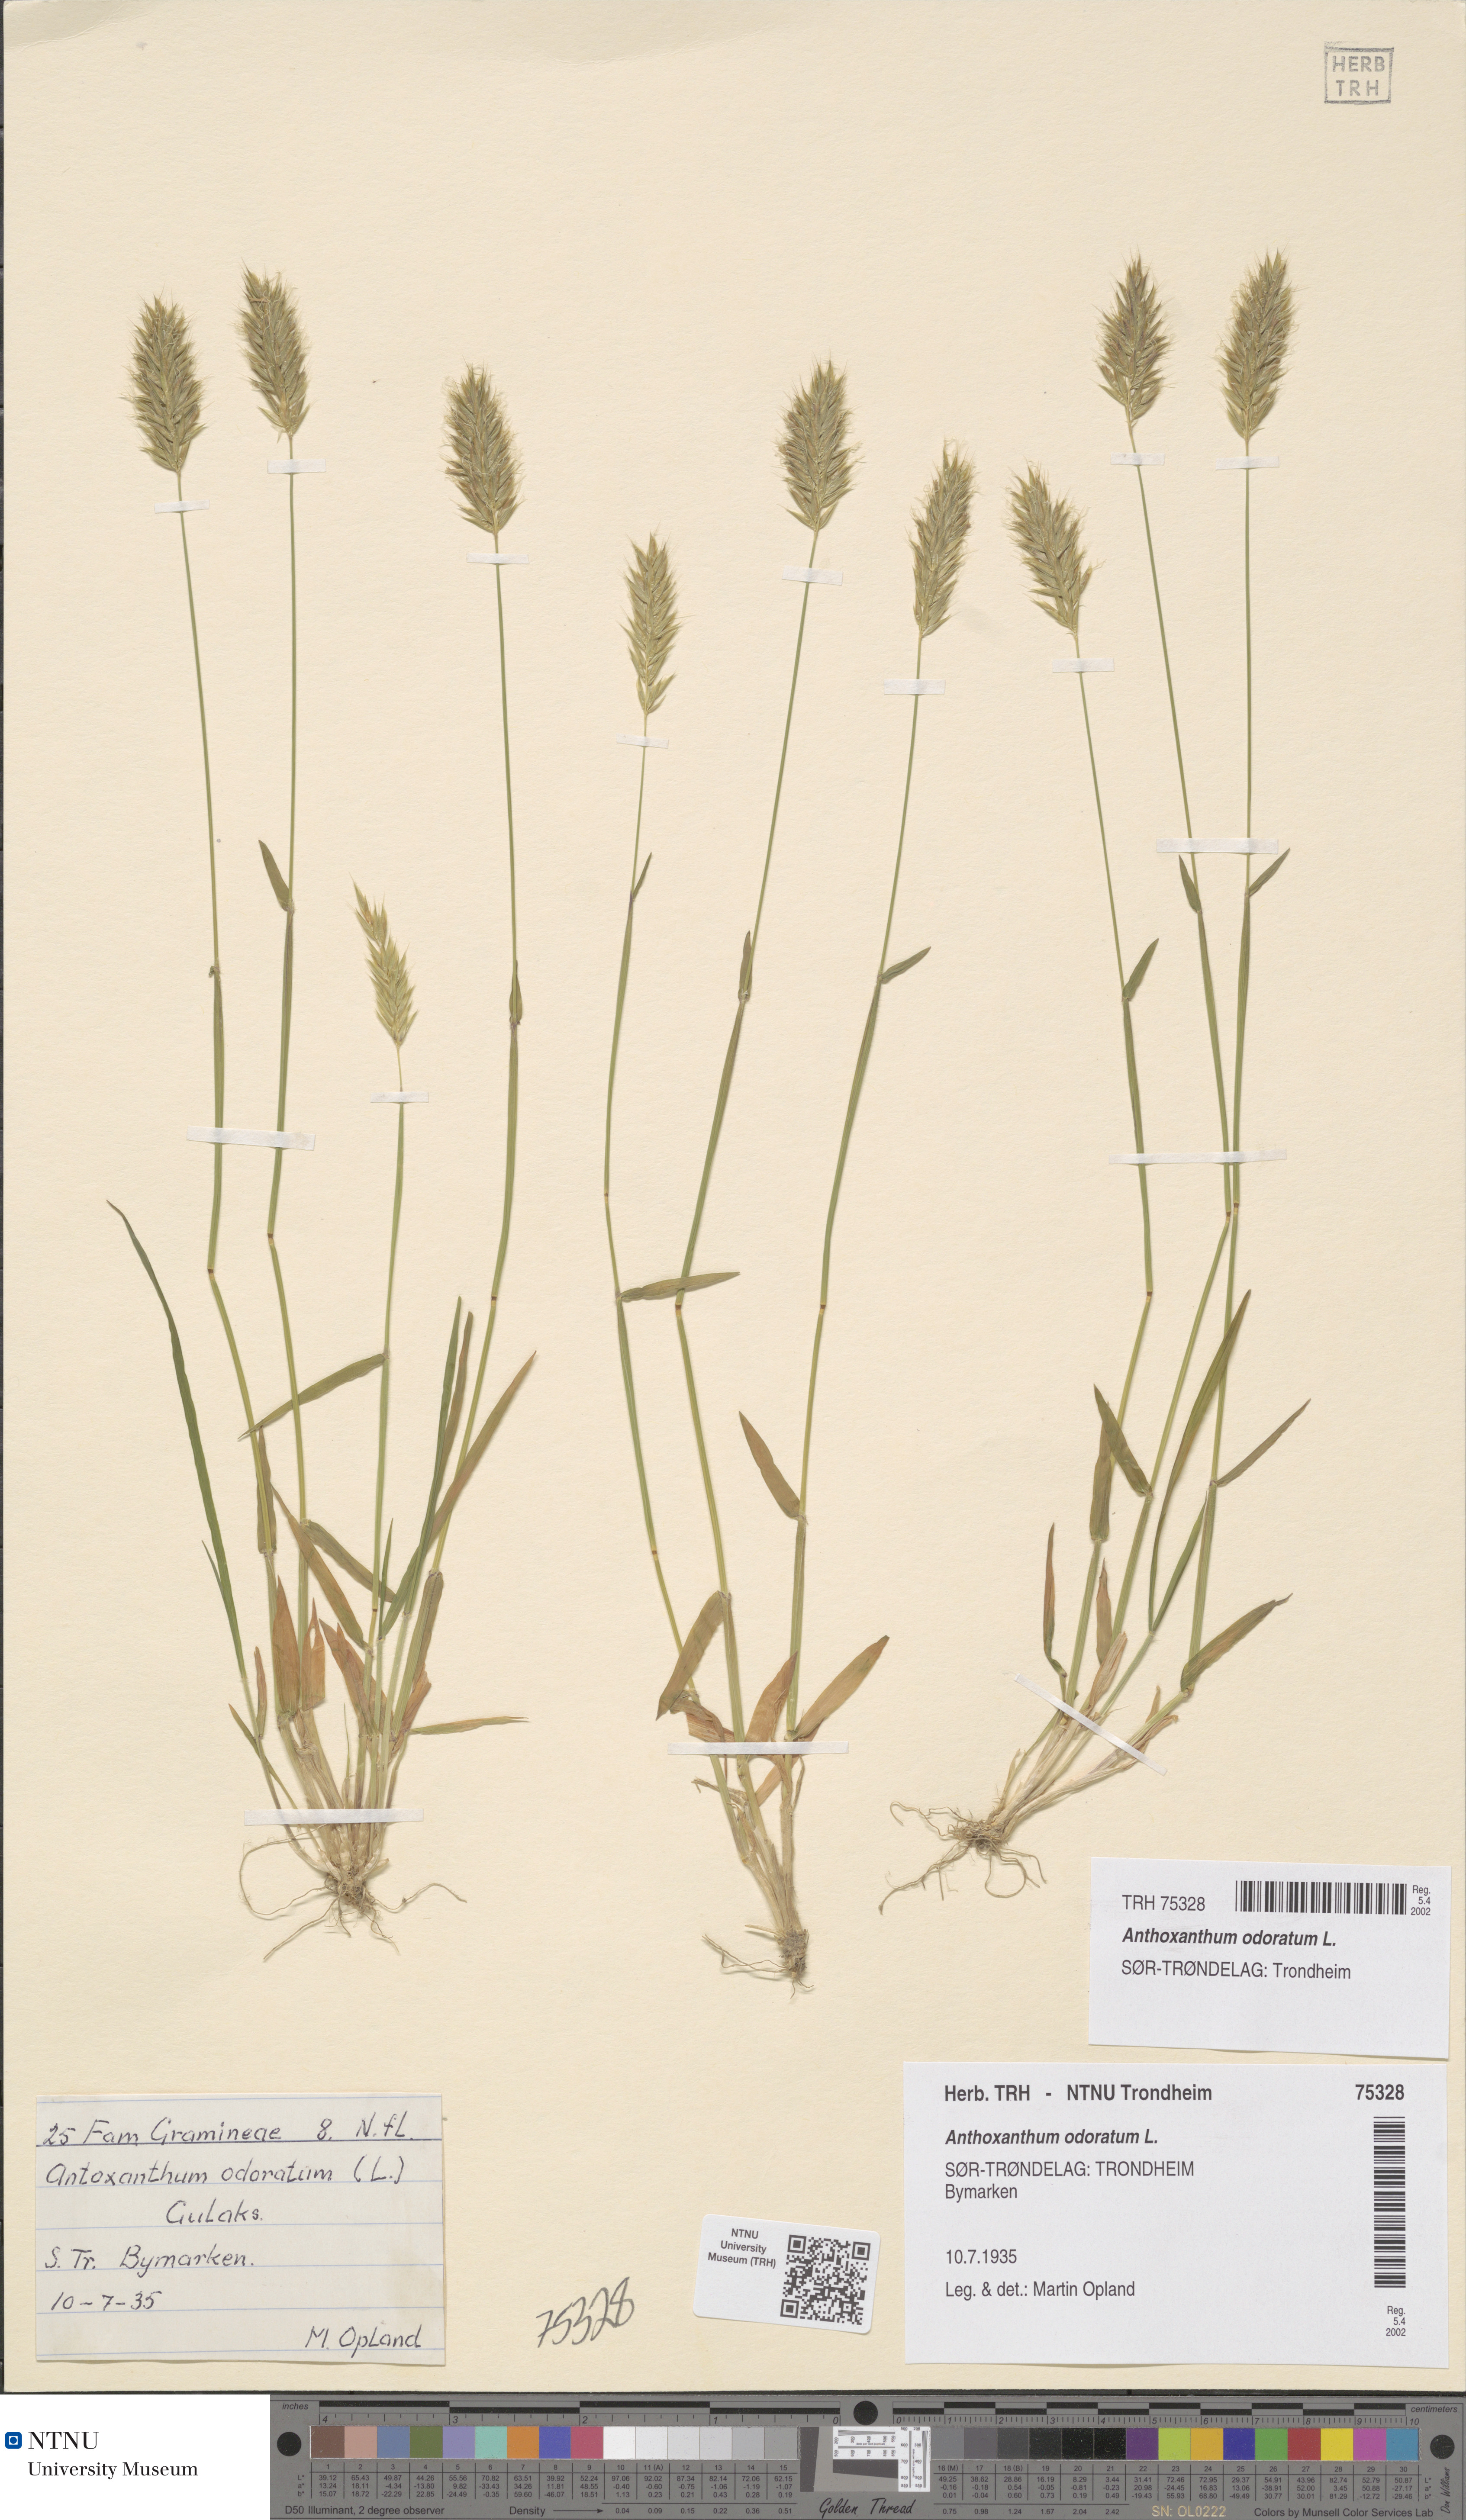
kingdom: Plantae
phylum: Tracheophyta
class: Liliopsida
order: Poales
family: Poaceae
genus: Anthoxanthum
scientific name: Anthoxanthum odoratum
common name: Sweet vernalgrass
